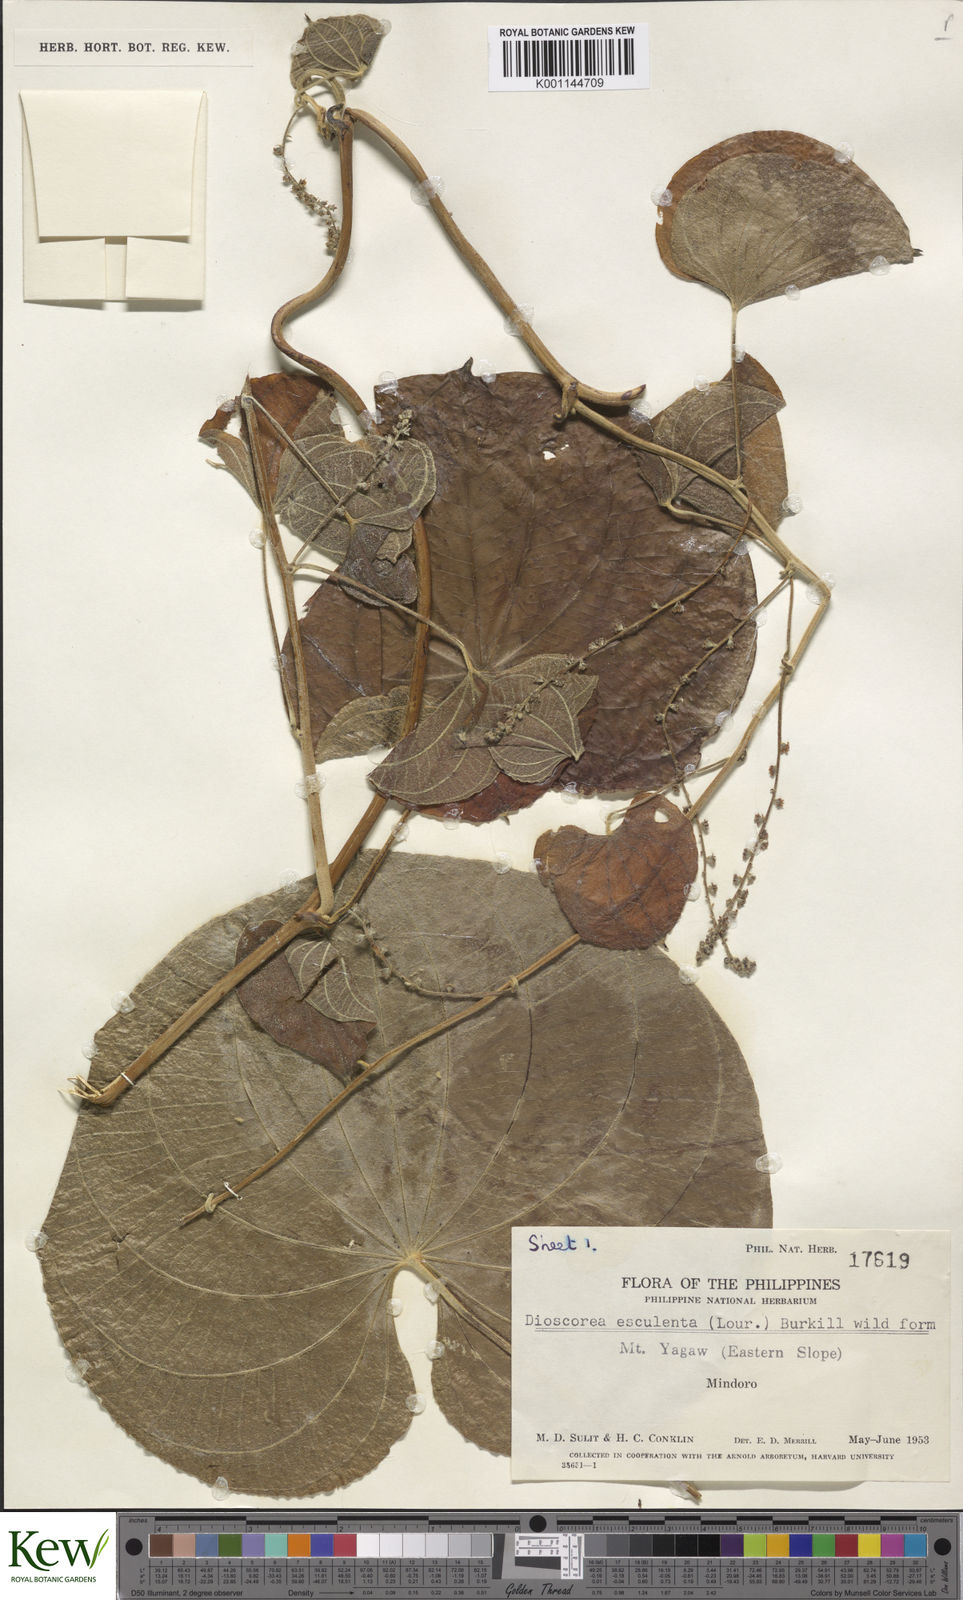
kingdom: Plantae
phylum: Tracheophyta
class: Liliopsida
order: Dioscoreales
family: Dioscoreaceae
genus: Dioscorea
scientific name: Dioscorea esculenta
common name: Chinese yam
